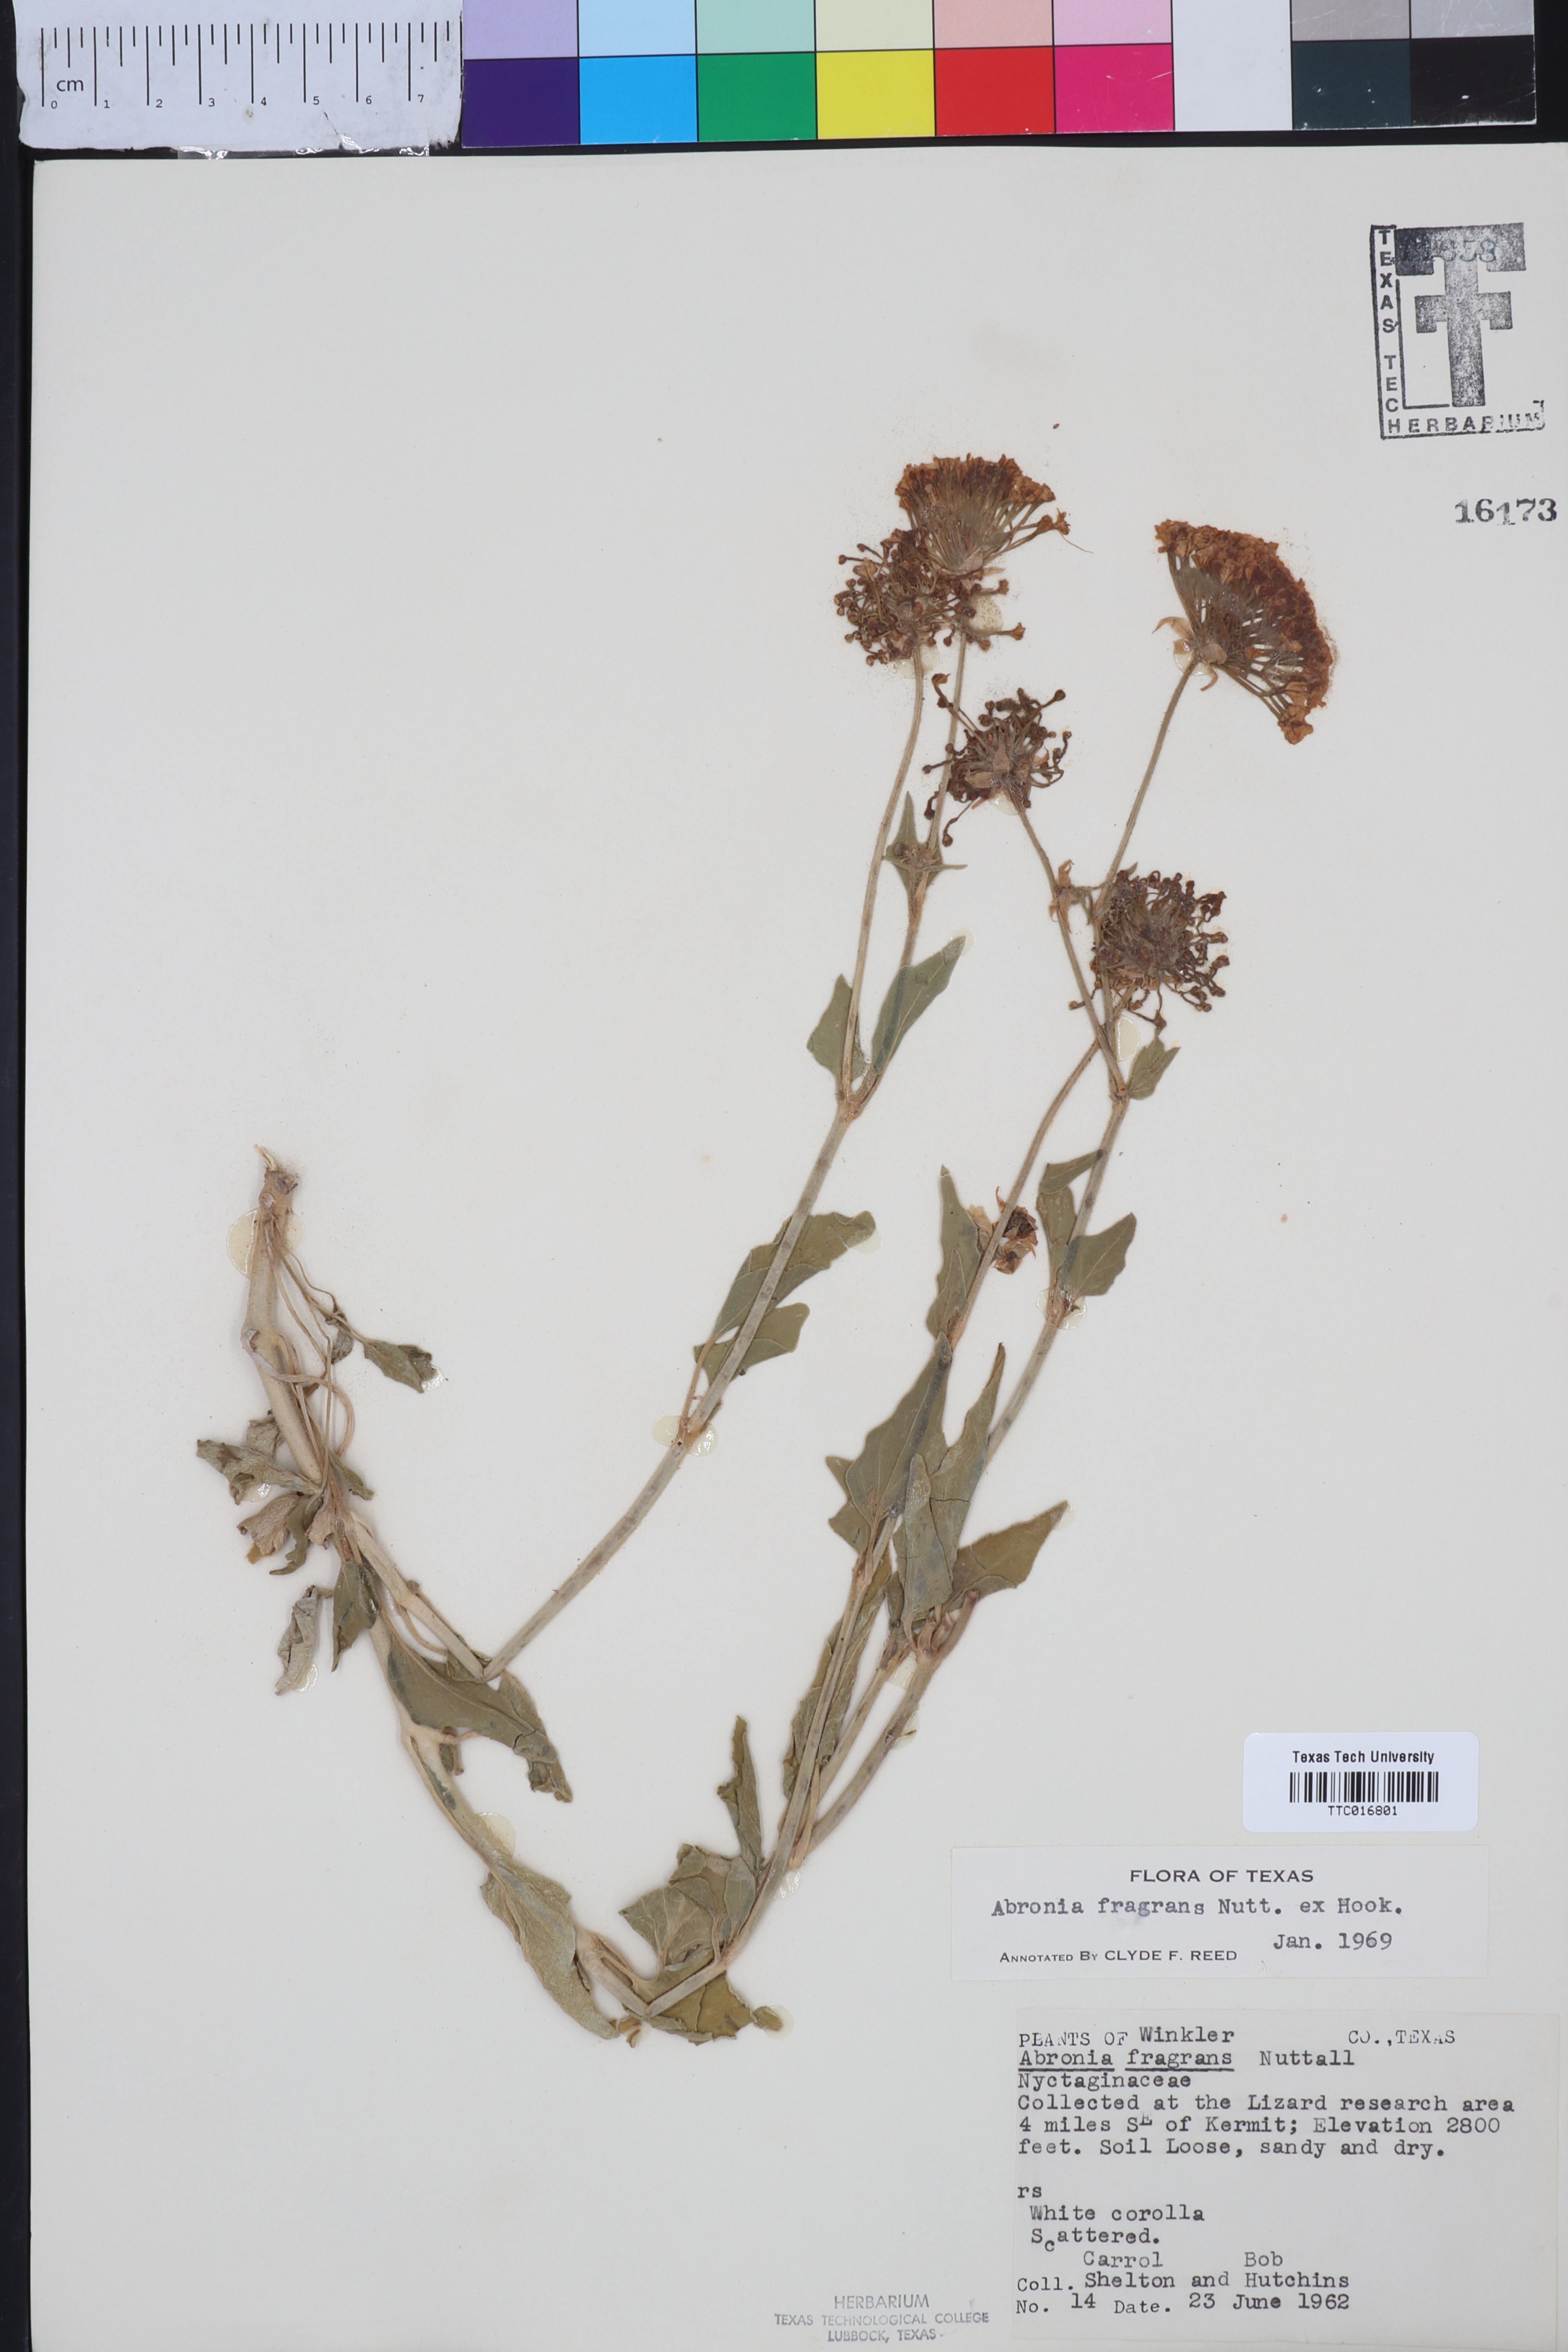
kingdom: Plantae
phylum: Tracheophyta
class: Magnoliopsida
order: Caryophyllales
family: Nyctaginaceae
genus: Abronia
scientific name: Abronia fragrans
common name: Fragrant sand-verbena
